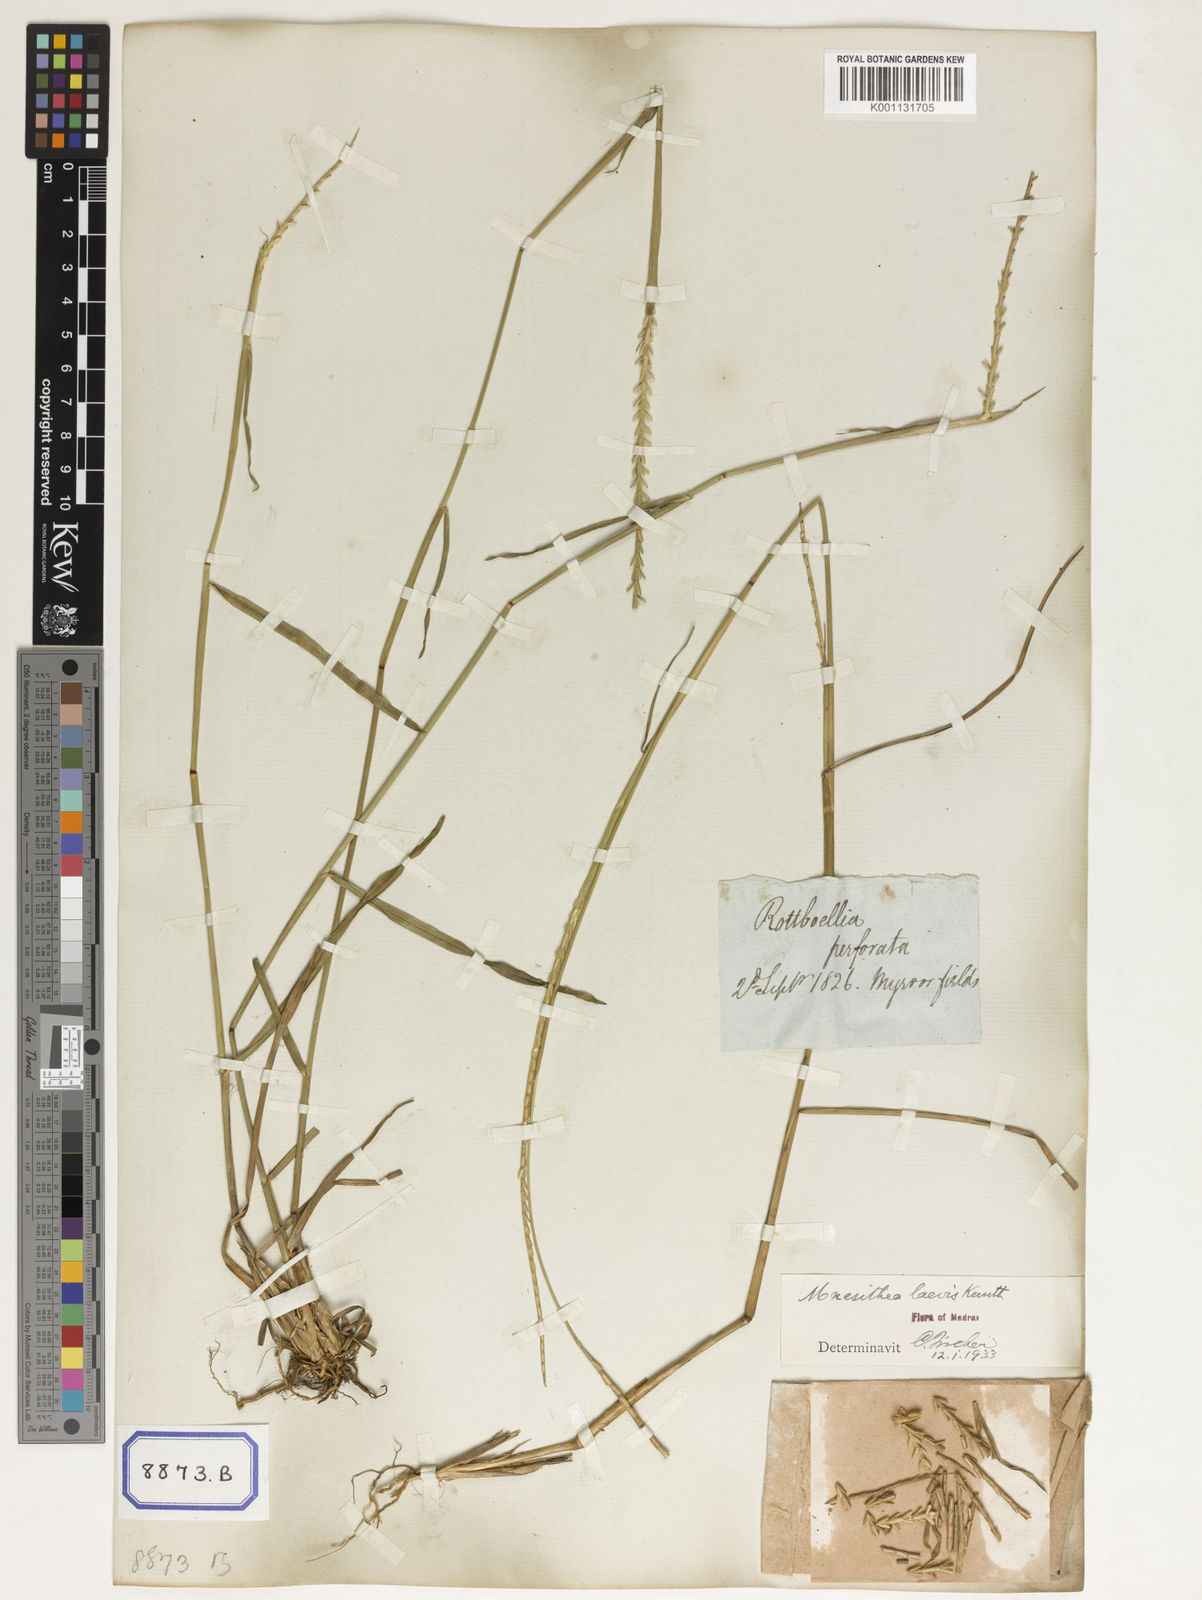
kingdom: Plantae
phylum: Tracheophyta
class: Liliopsida
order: Poales
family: Poaceae
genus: Mnesithea
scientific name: Mnesithea laevis
